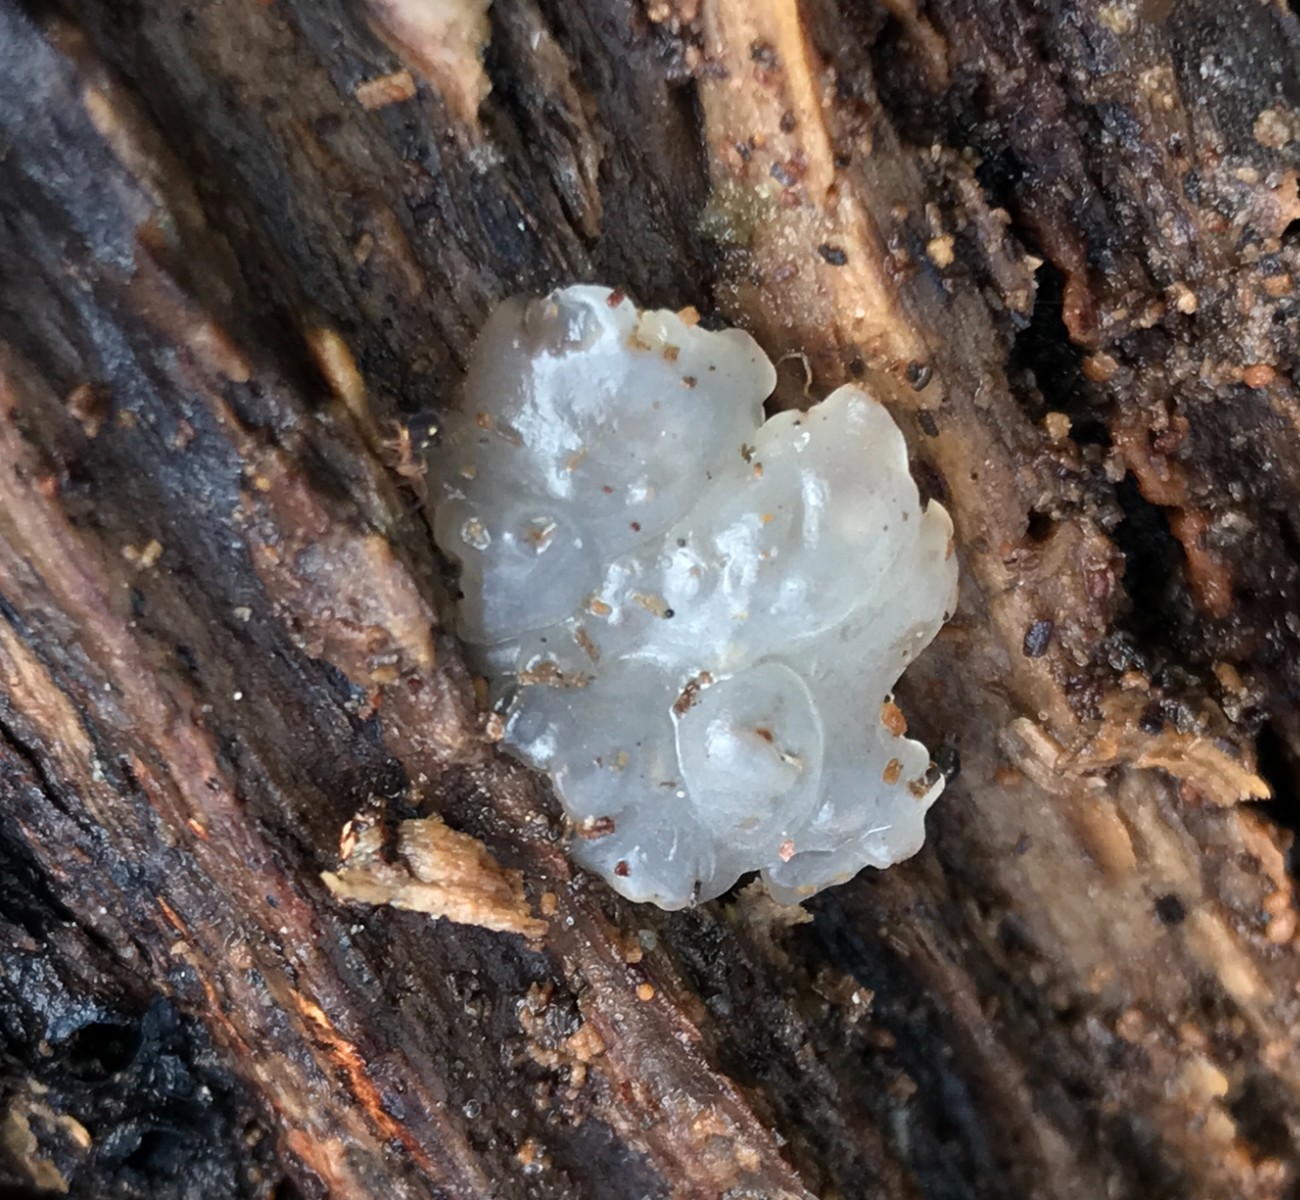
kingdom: Fungi
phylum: Basidiomycota
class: Agaricomycetes
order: Auriculariales
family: Hyaloriaceae
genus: Myxarium
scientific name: Myxarium nucleatum
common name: klar bævretop
